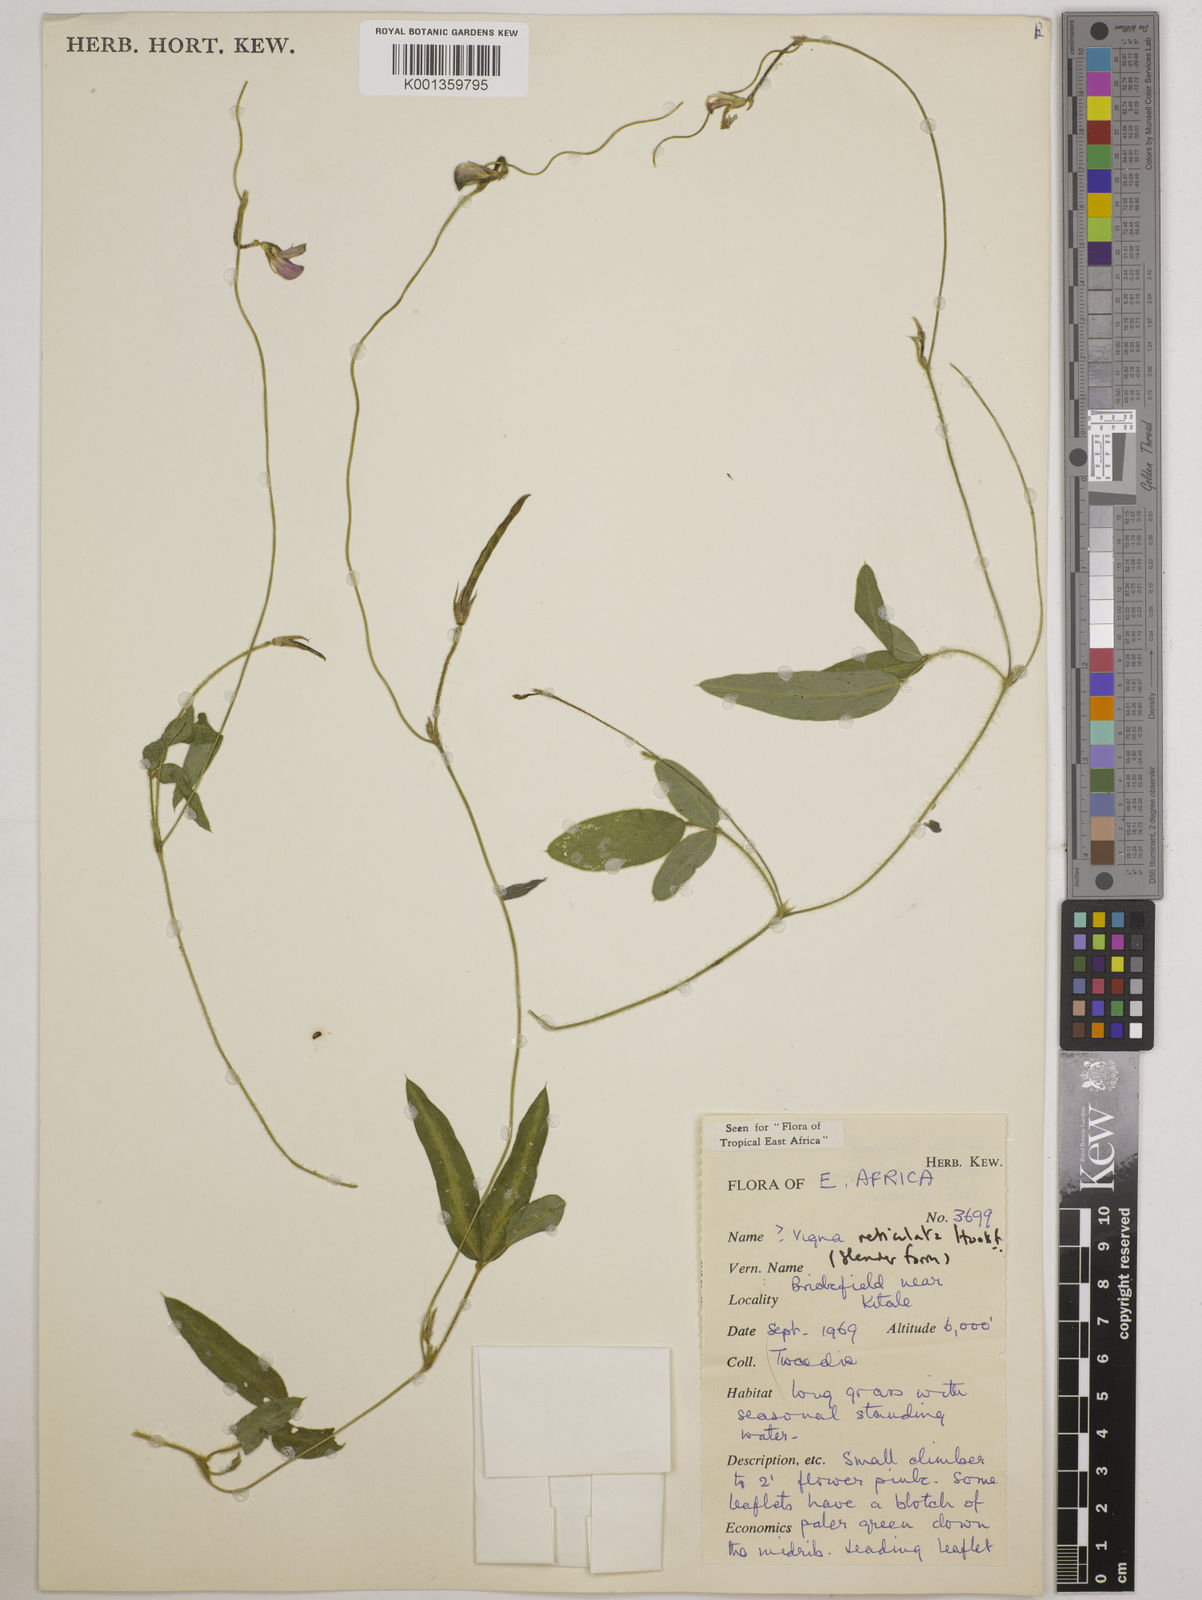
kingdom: Plantae
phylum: Tracheophyta
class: Magnoliopsida
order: Fabales
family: Fabaceae
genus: Vigna
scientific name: Vigna reticulata
